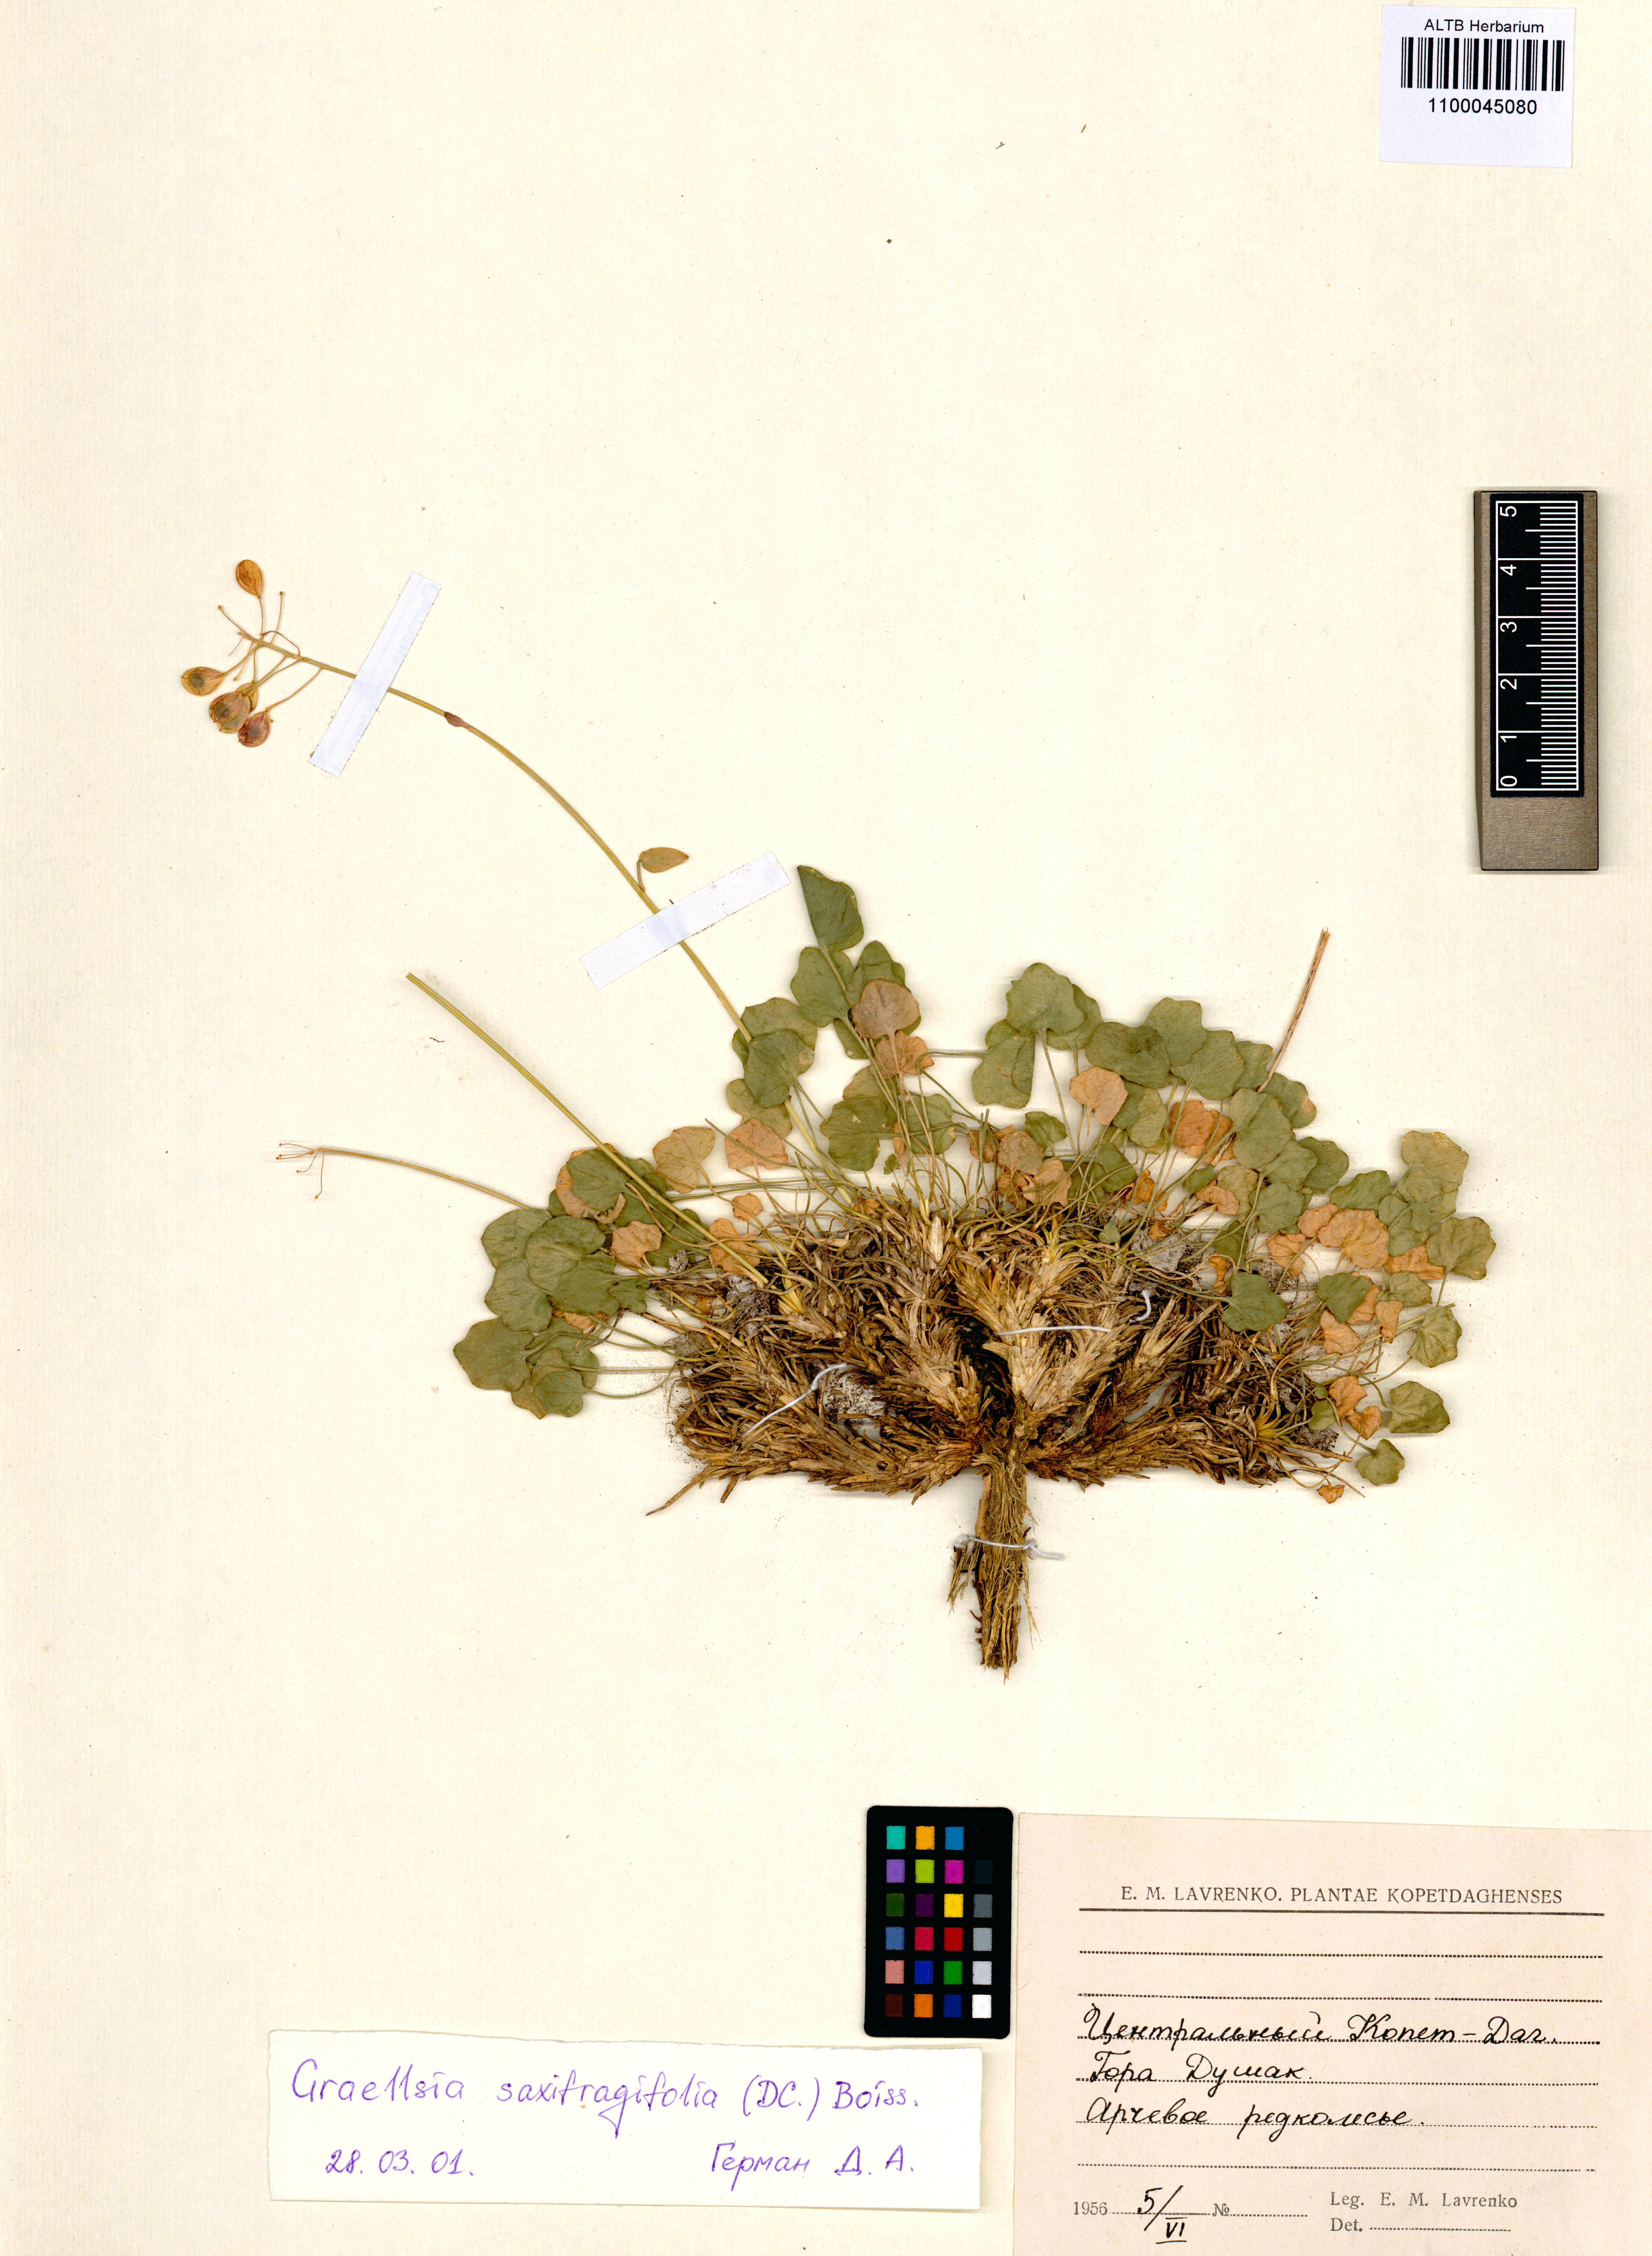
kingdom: Plantae
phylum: Tracheophyta
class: Magnoliopsida
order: Brassicales
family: Brassicaceae
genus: Graellsia
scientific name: Graellsia saxifragifolia
